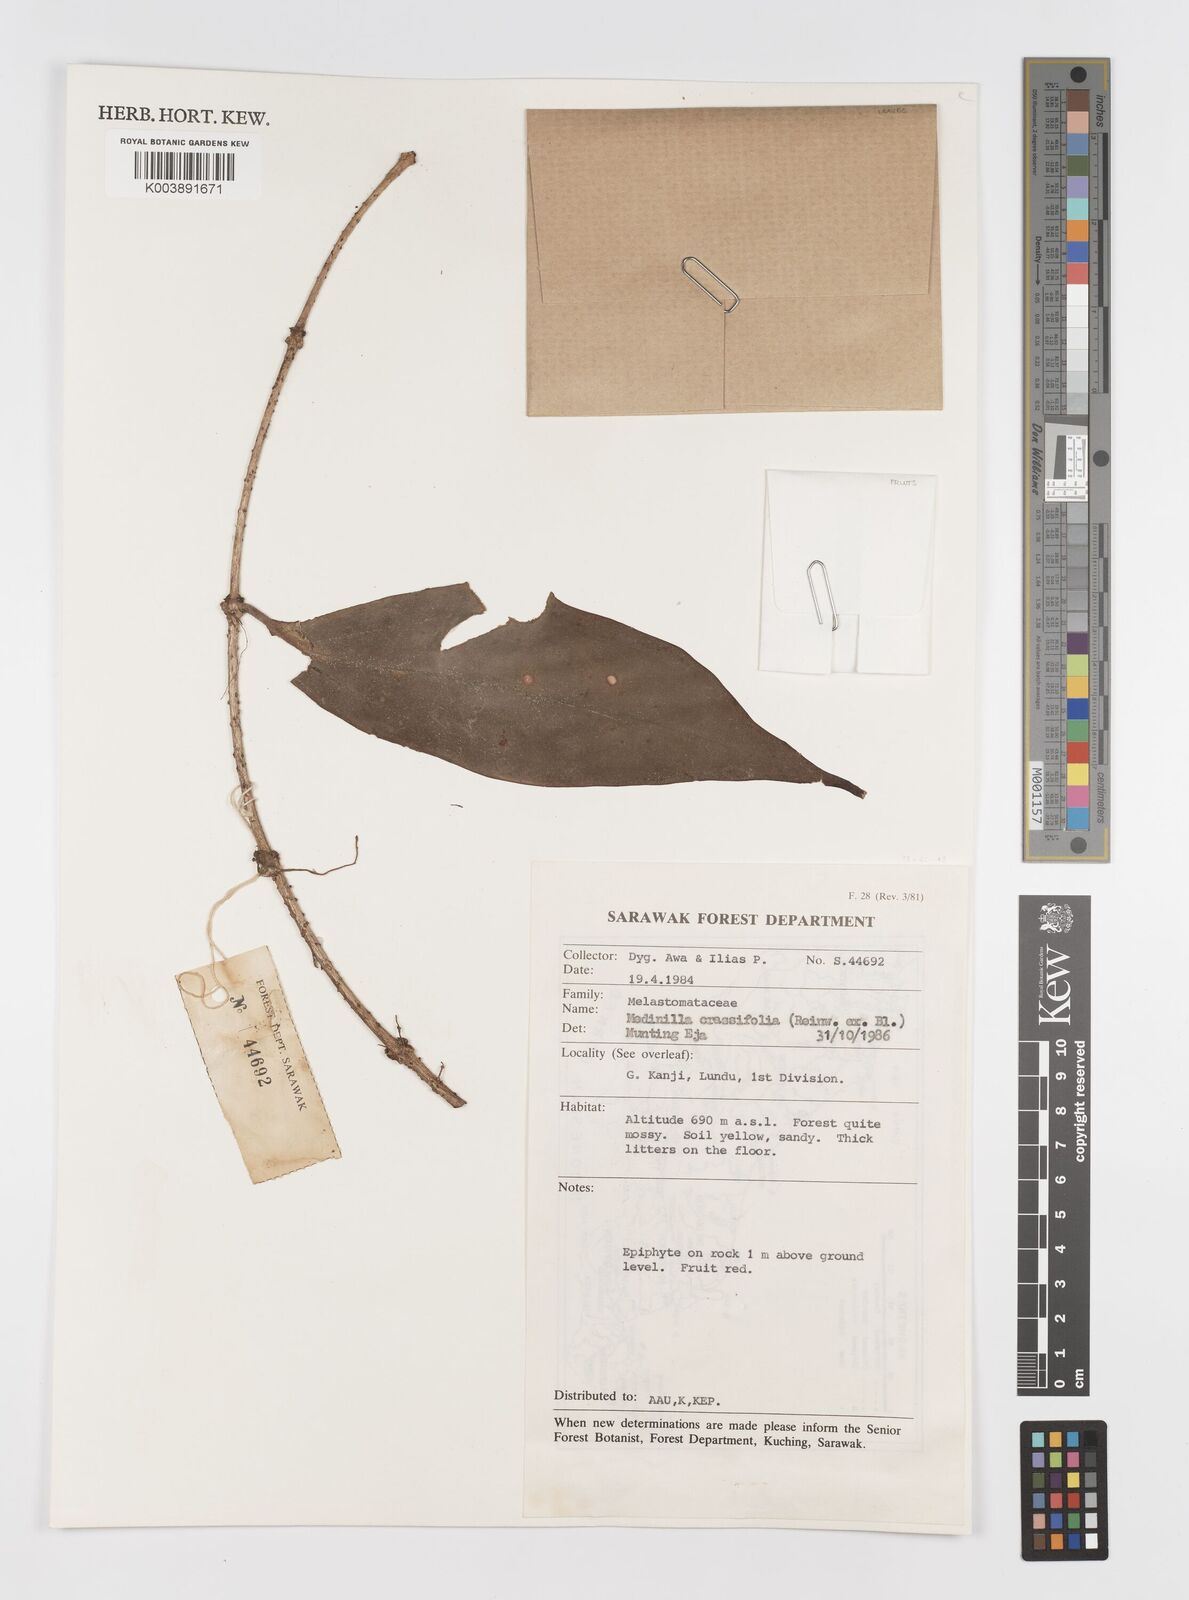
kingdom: Plantae
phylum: Tracheophyta
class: Magnoliopsida
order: Myrtales
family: Melastomataceae
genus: Medinilla
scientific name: Medinilla crassifolia
